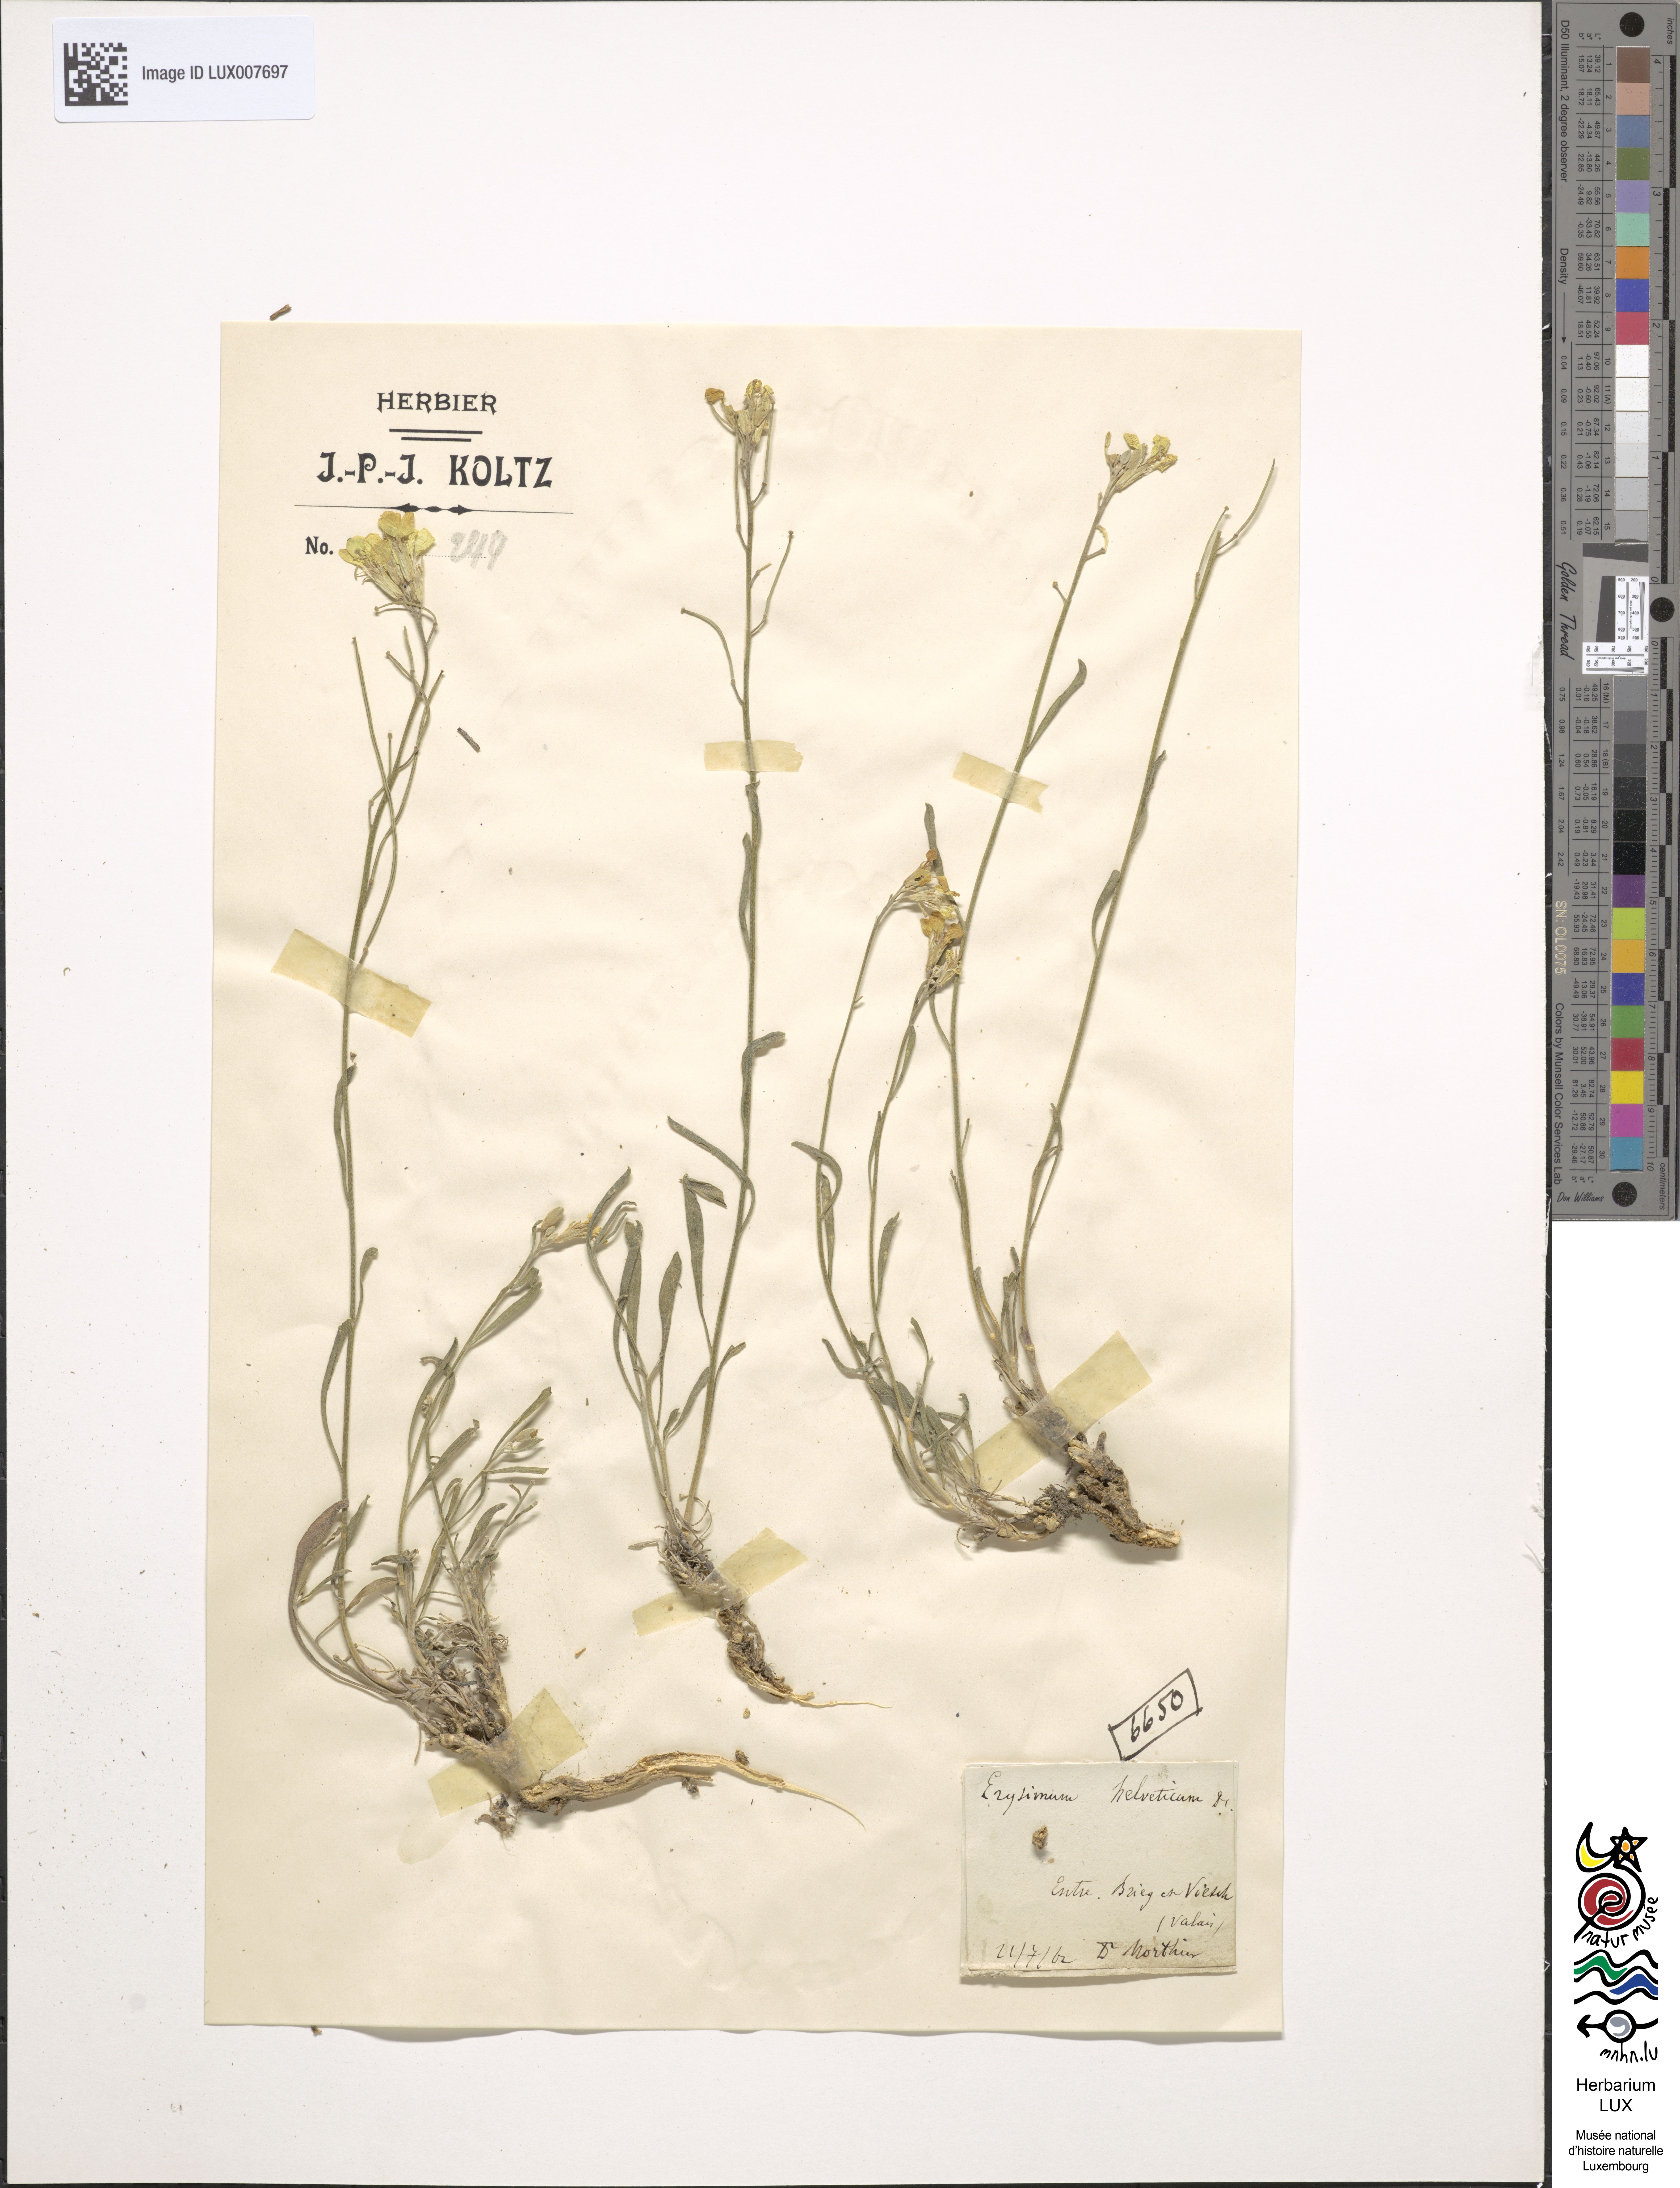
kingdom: Plantae
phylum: Tracheophyta
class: Magnoliopsida
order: Brassicales
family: Brassicaceae
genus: Erysimum
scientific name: Erysimum rhaeticum
